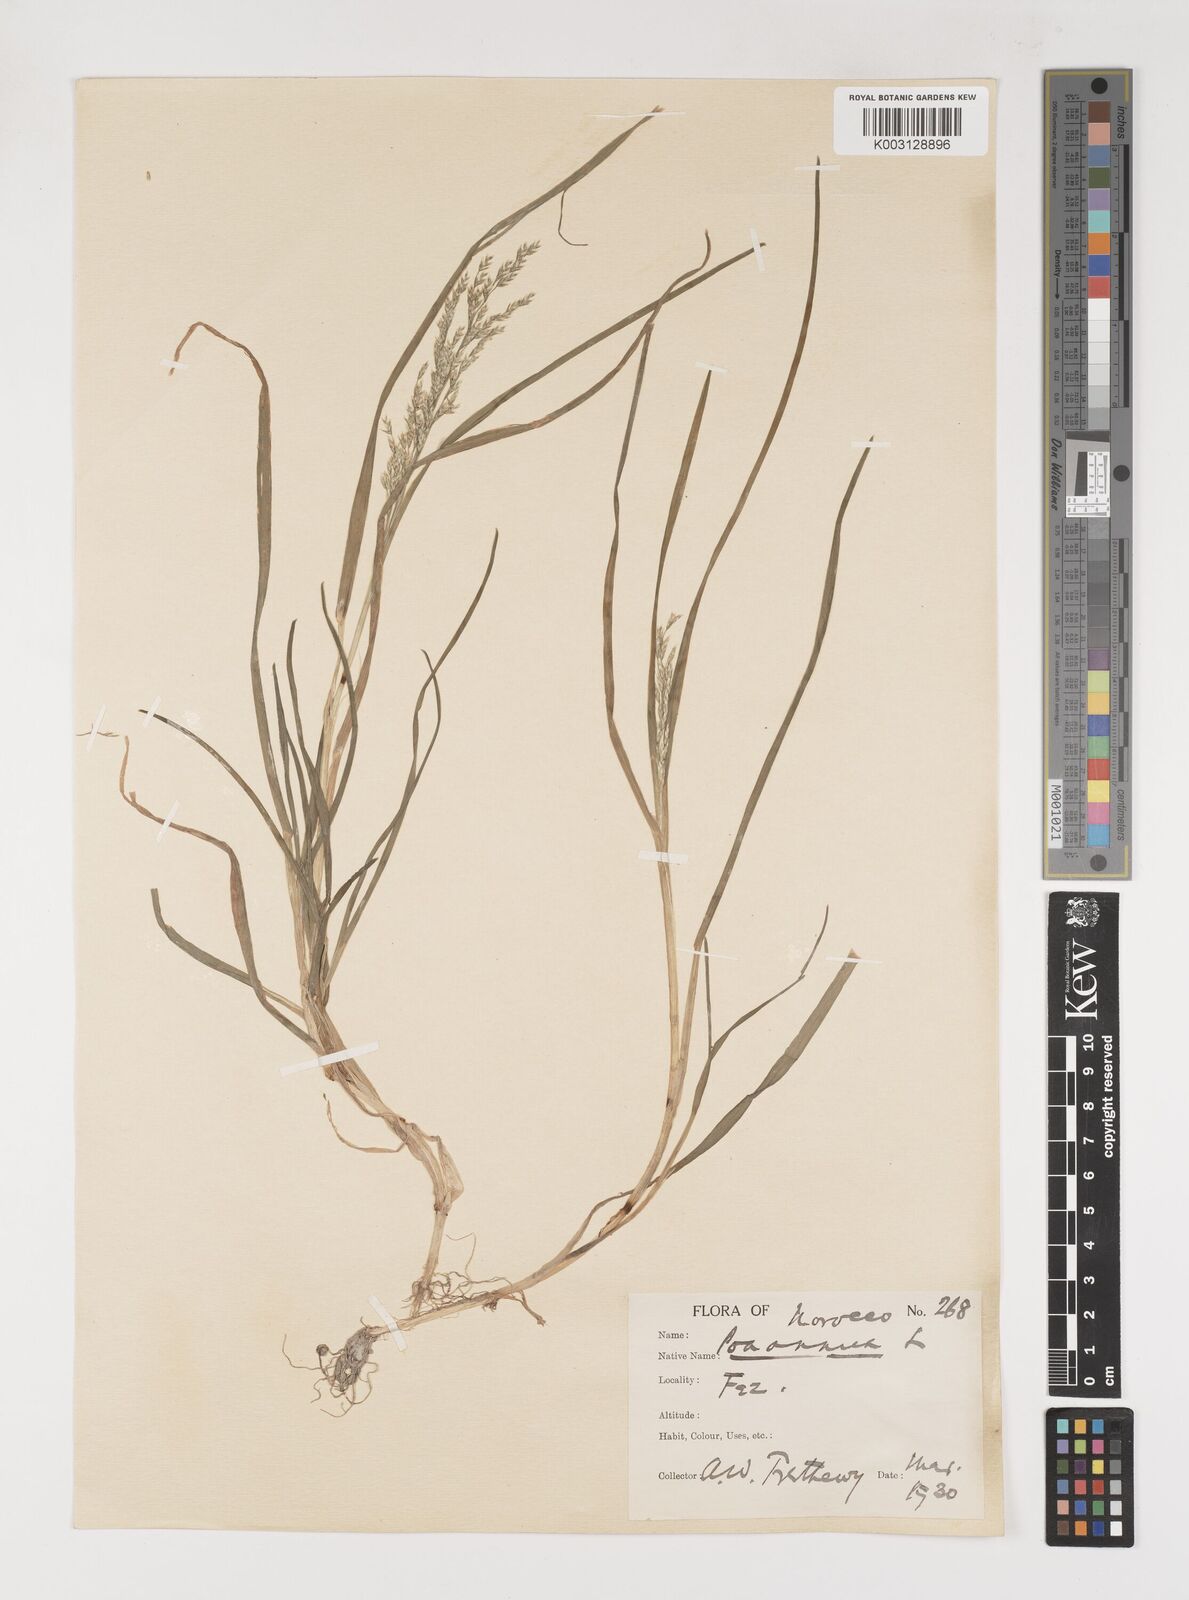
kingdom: Plantae
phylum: Tracheophyta
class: Liliopsida
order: Poales
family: Poaceae
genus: Poa
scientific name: Poa annua
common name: Annual bluegrass
